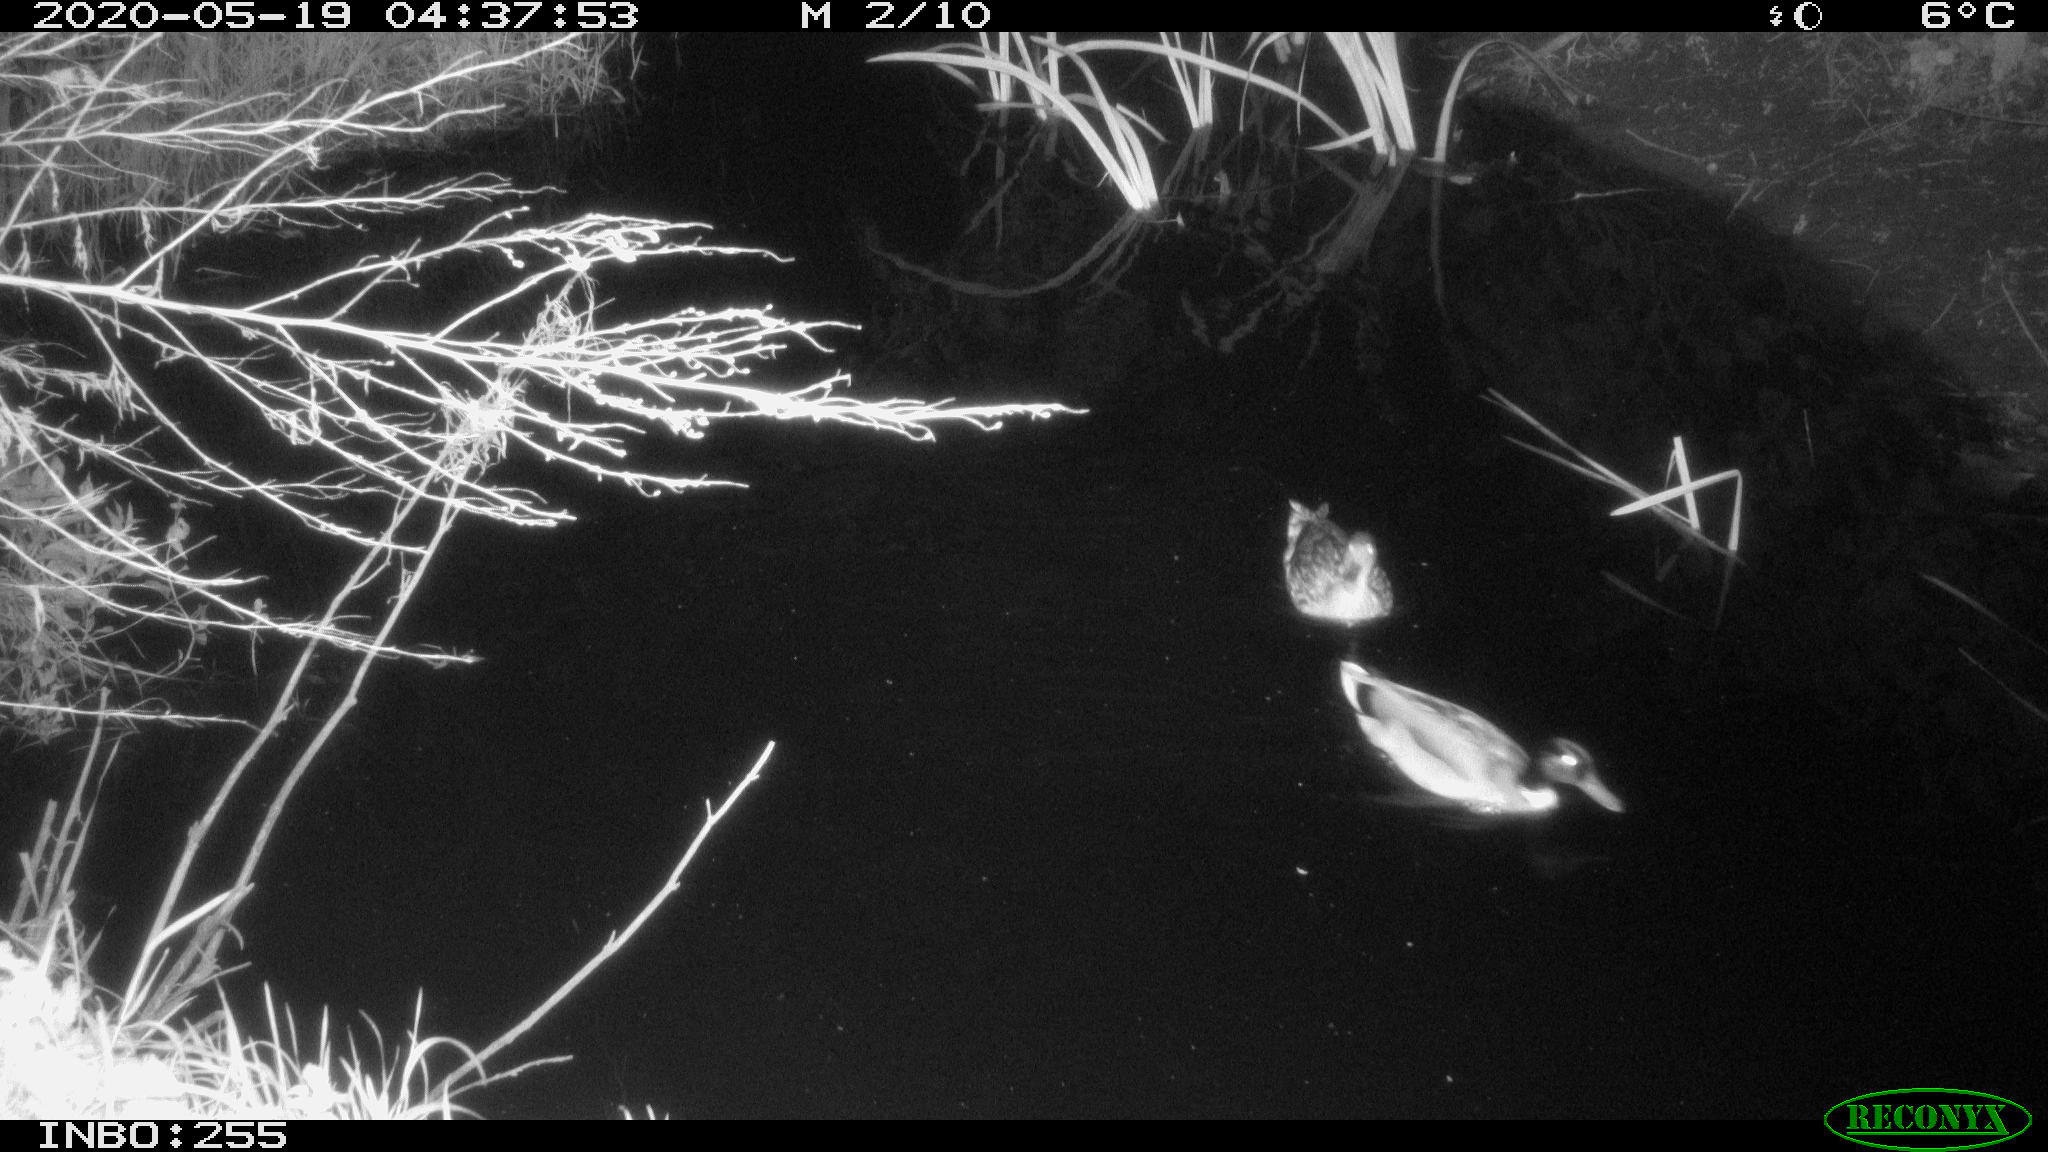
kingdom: Animalia
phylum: Chordata
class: Aves
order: Anseriformes
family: Anatidae
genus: Anas
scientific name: Anas platyrhynchos
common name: Mallard
